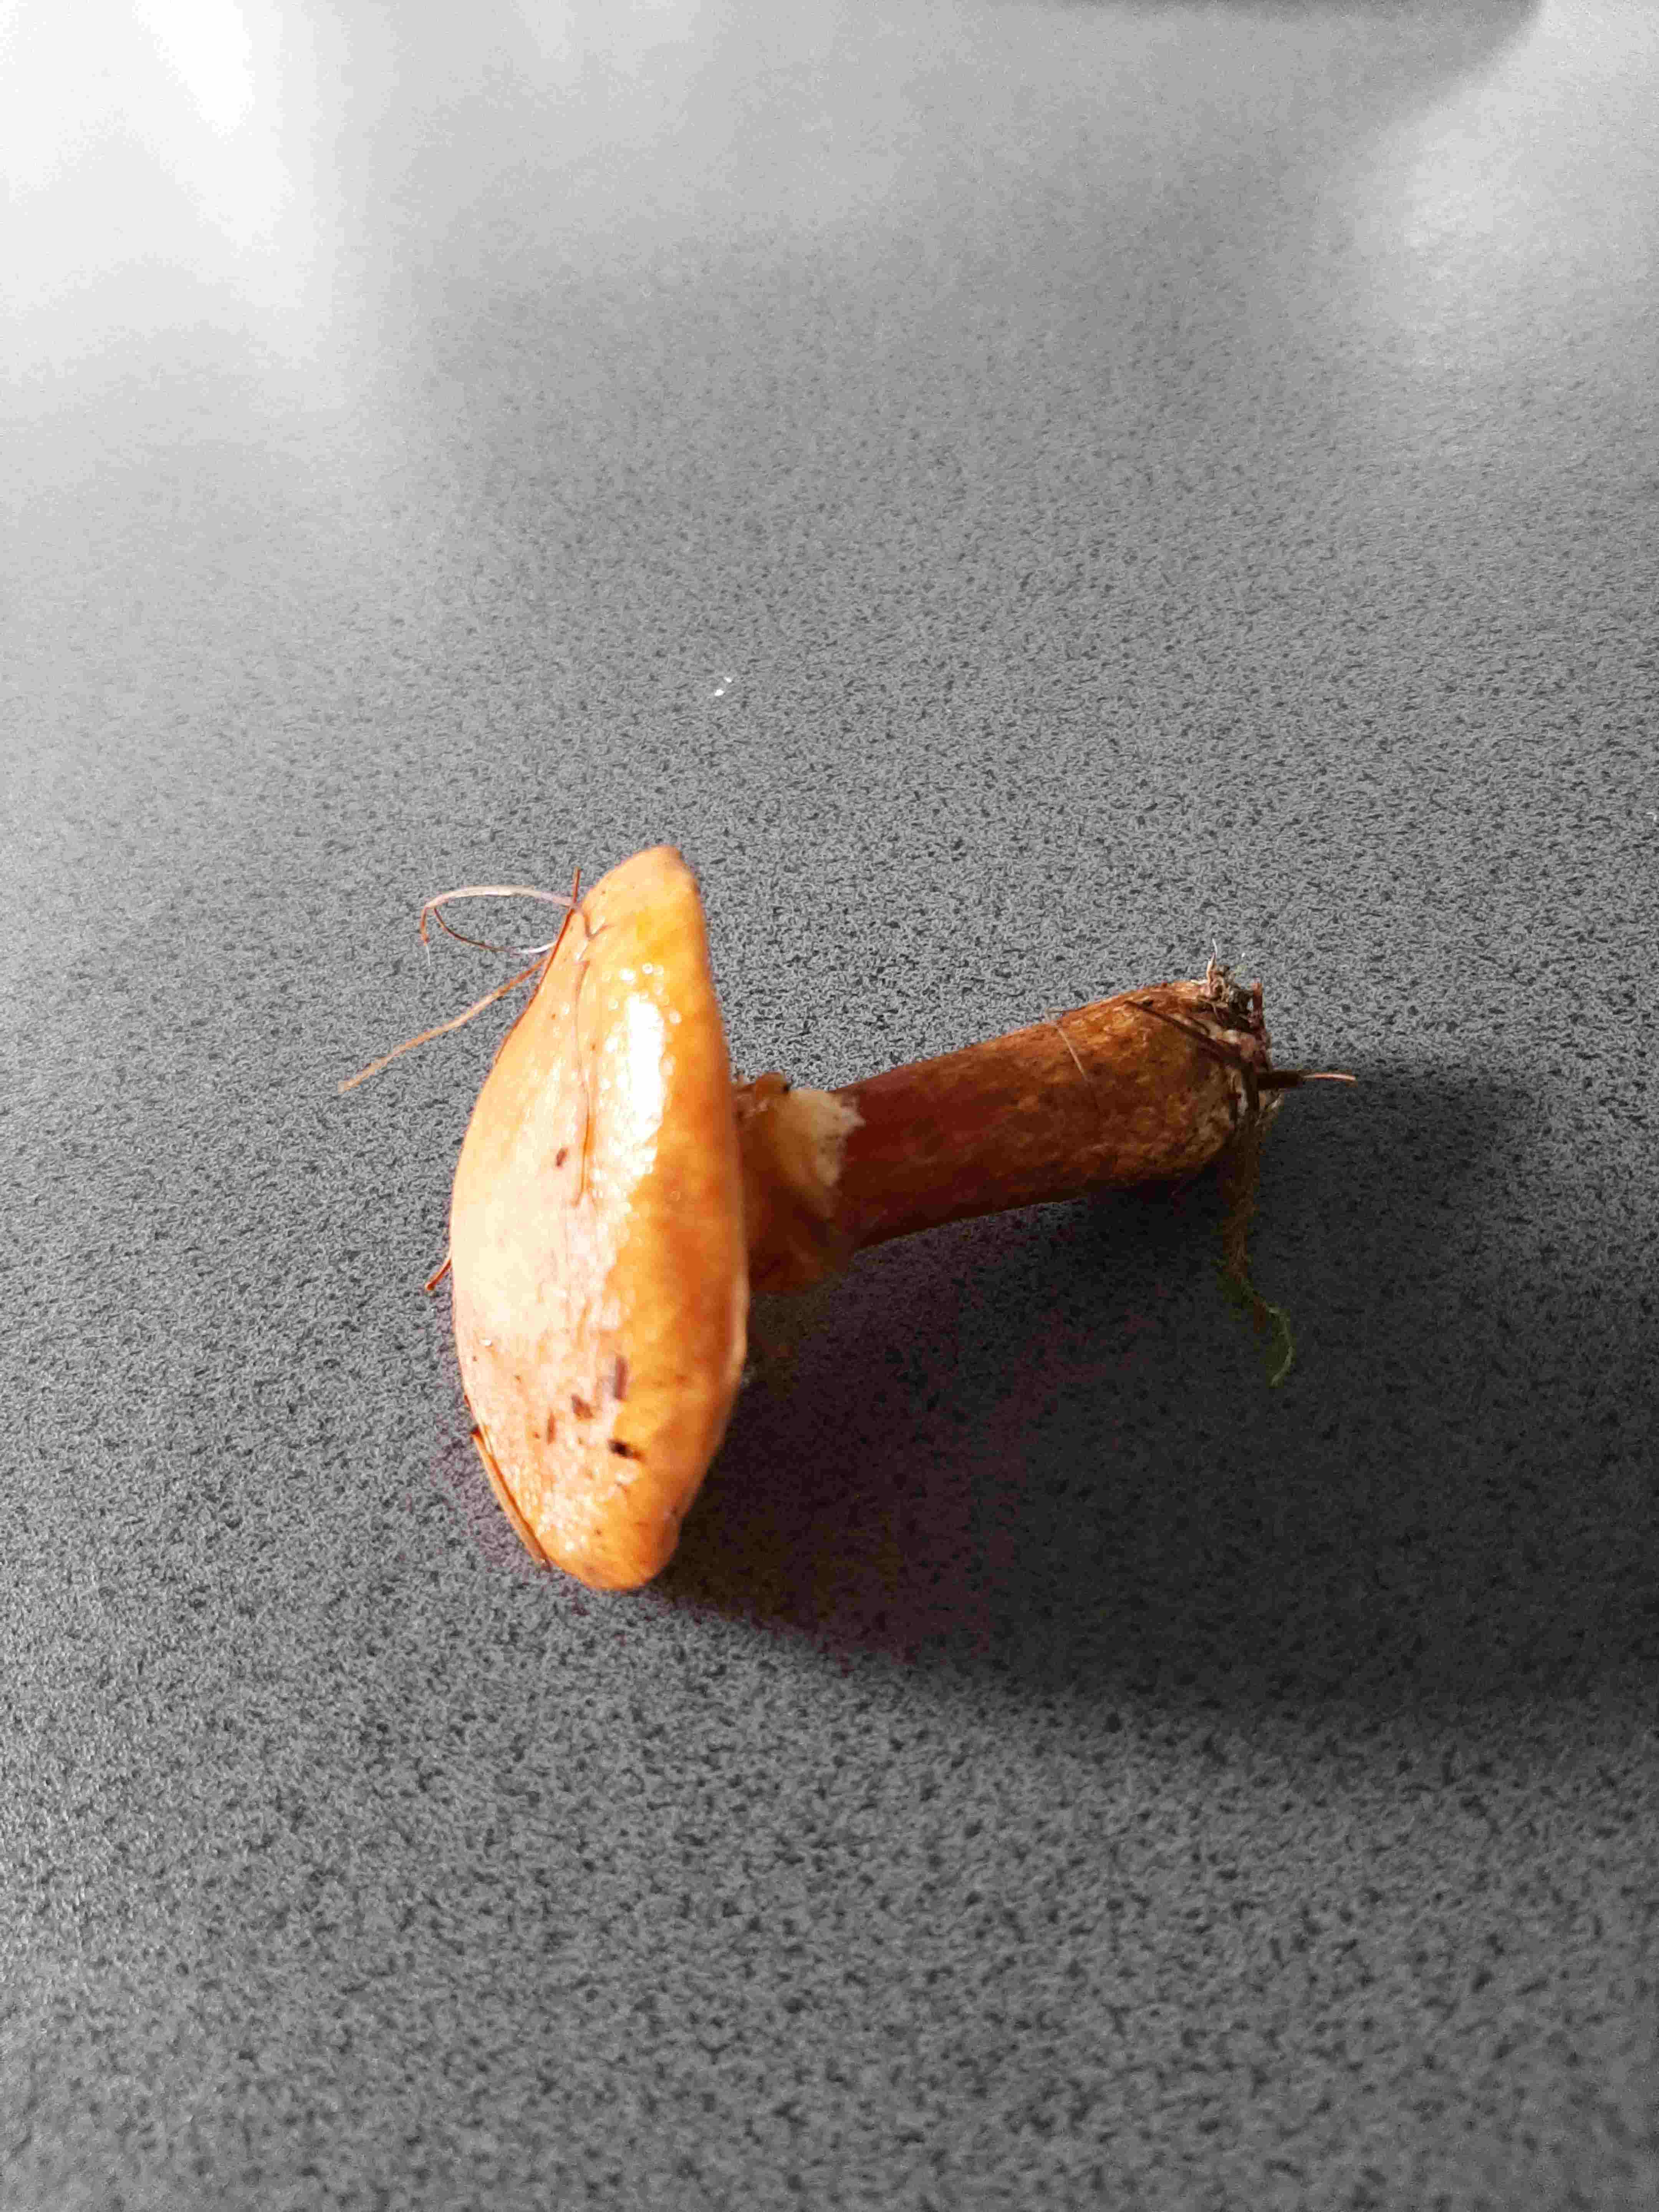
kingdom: Fungi
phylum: Basidiomycota
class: Agaricomycetes
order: Boletales
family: Suillaceae
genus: Suillus
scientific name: Suillus
